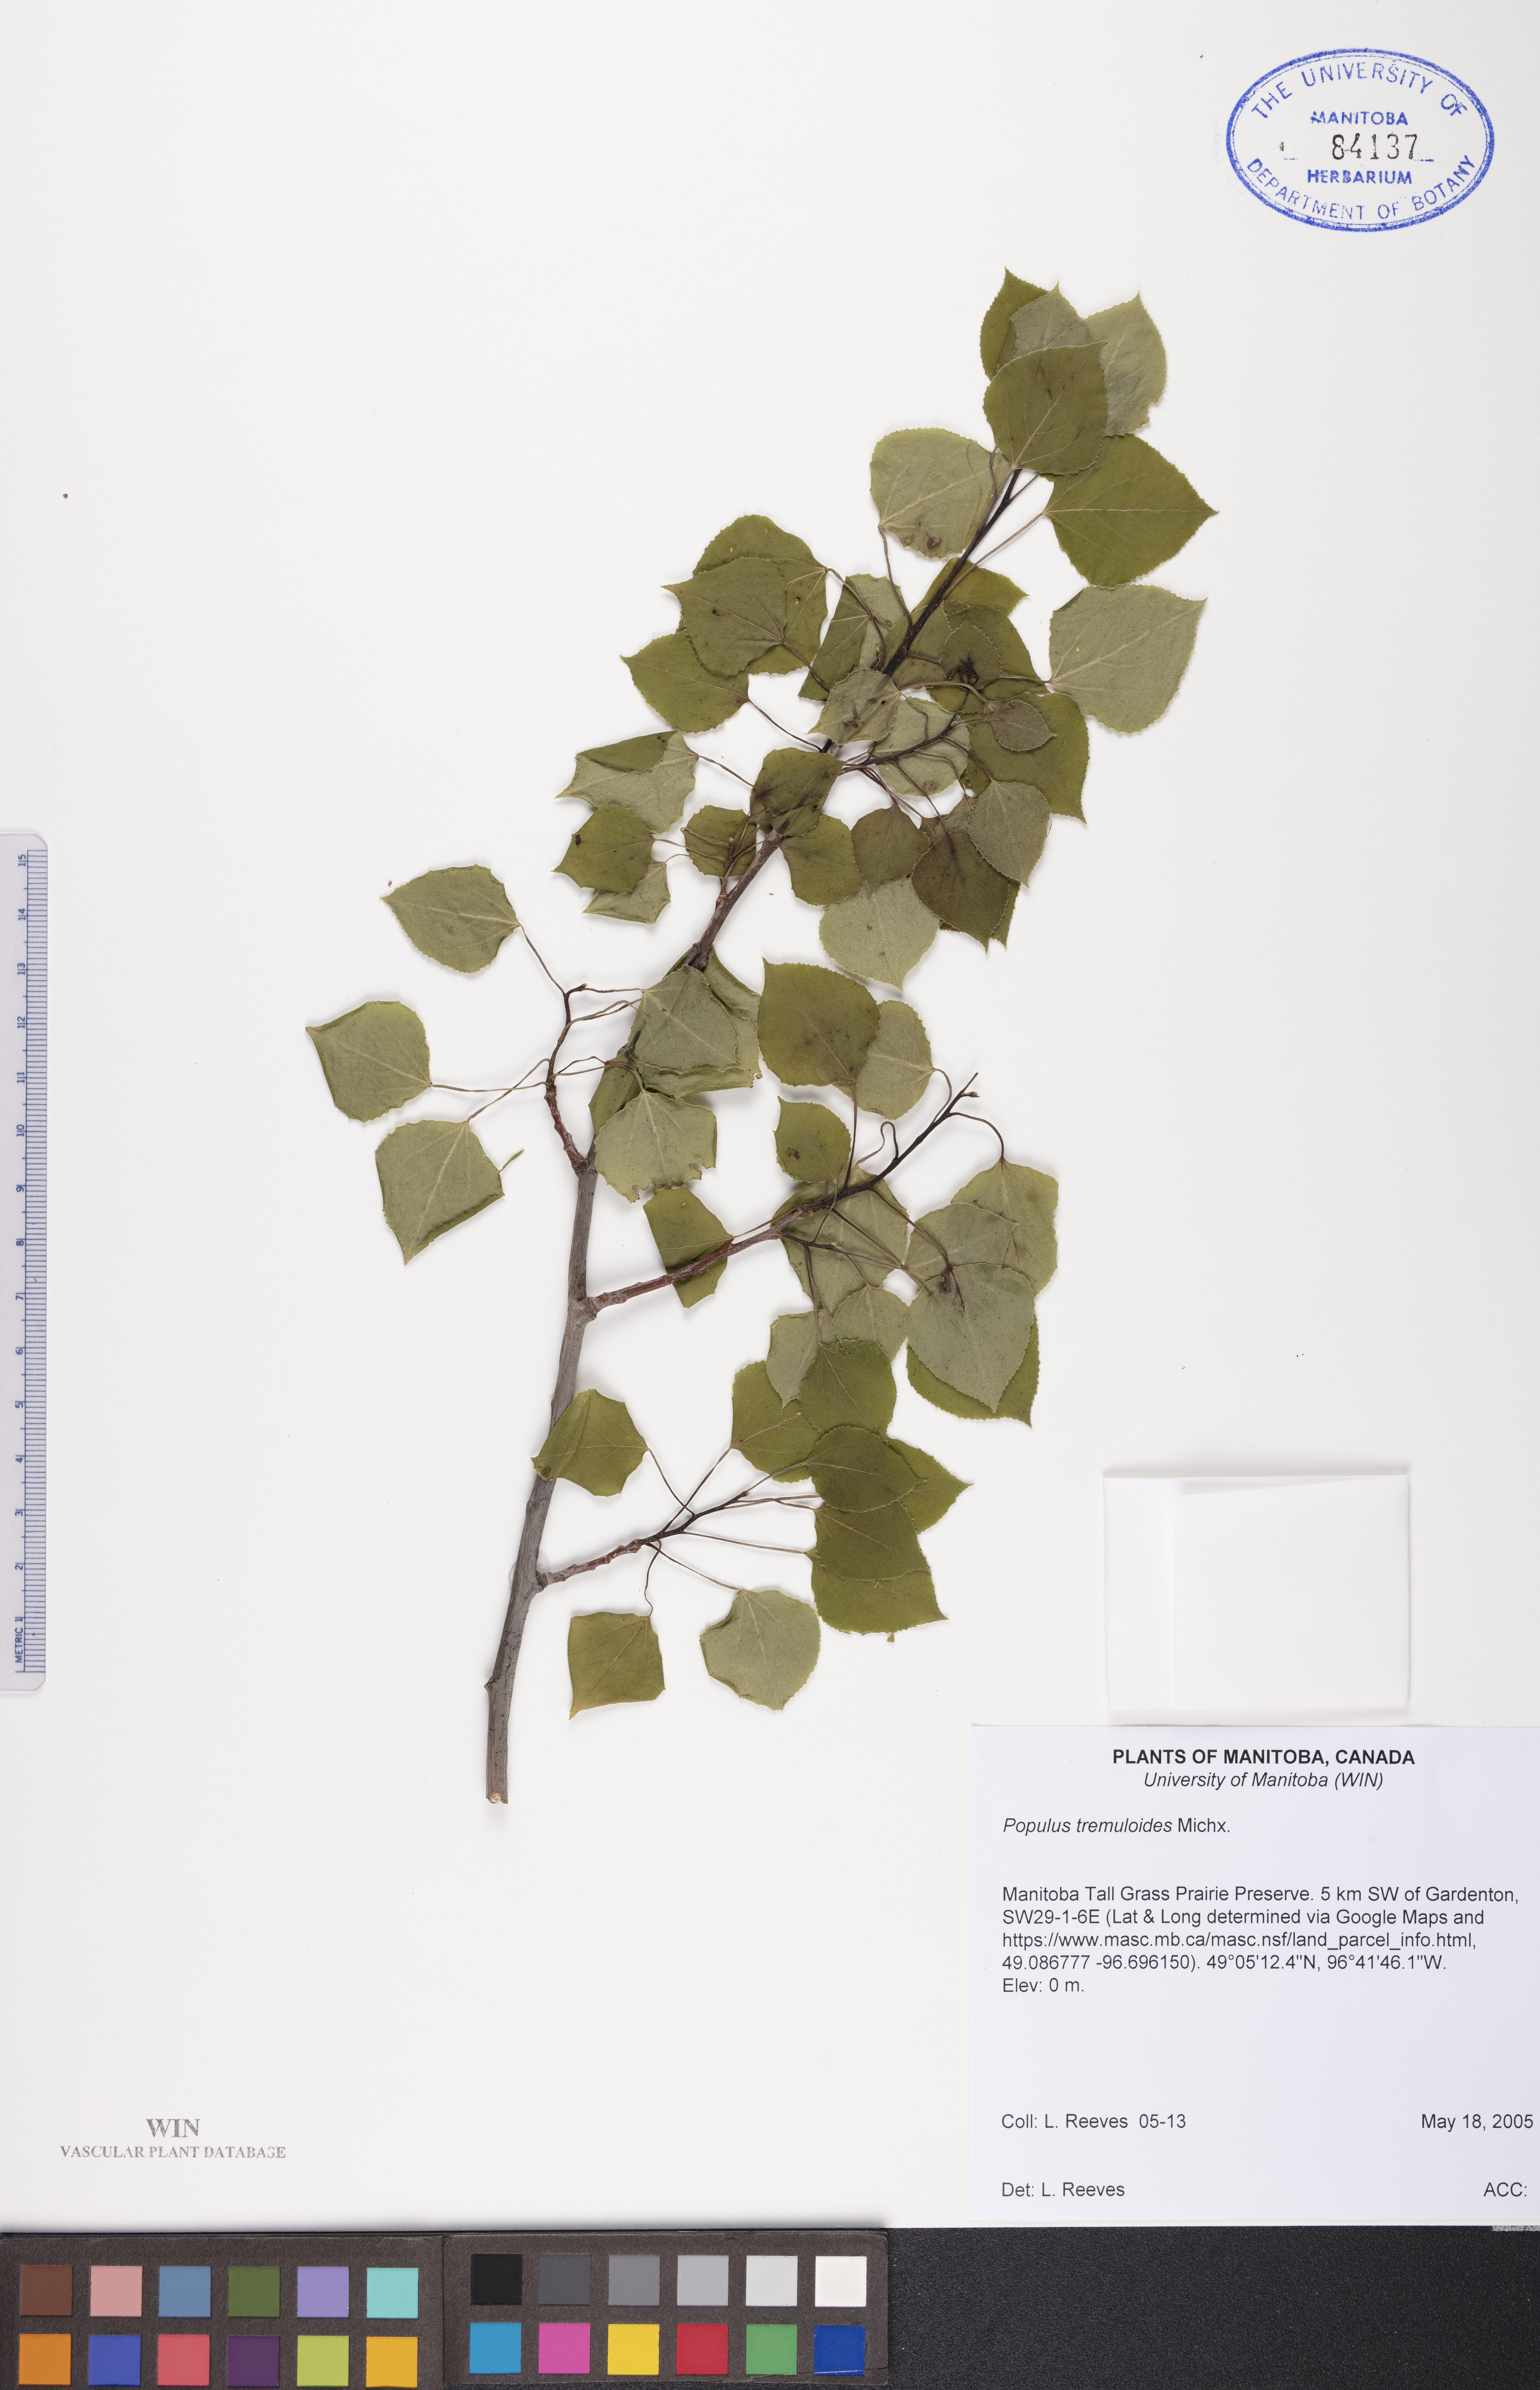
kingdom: Plantae
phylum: Tracheophyta
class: Magnoliopsida
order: Malpighiales
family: Salicaceae
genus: Populus
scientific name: Populus tremuloides
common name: Quaking aspen
